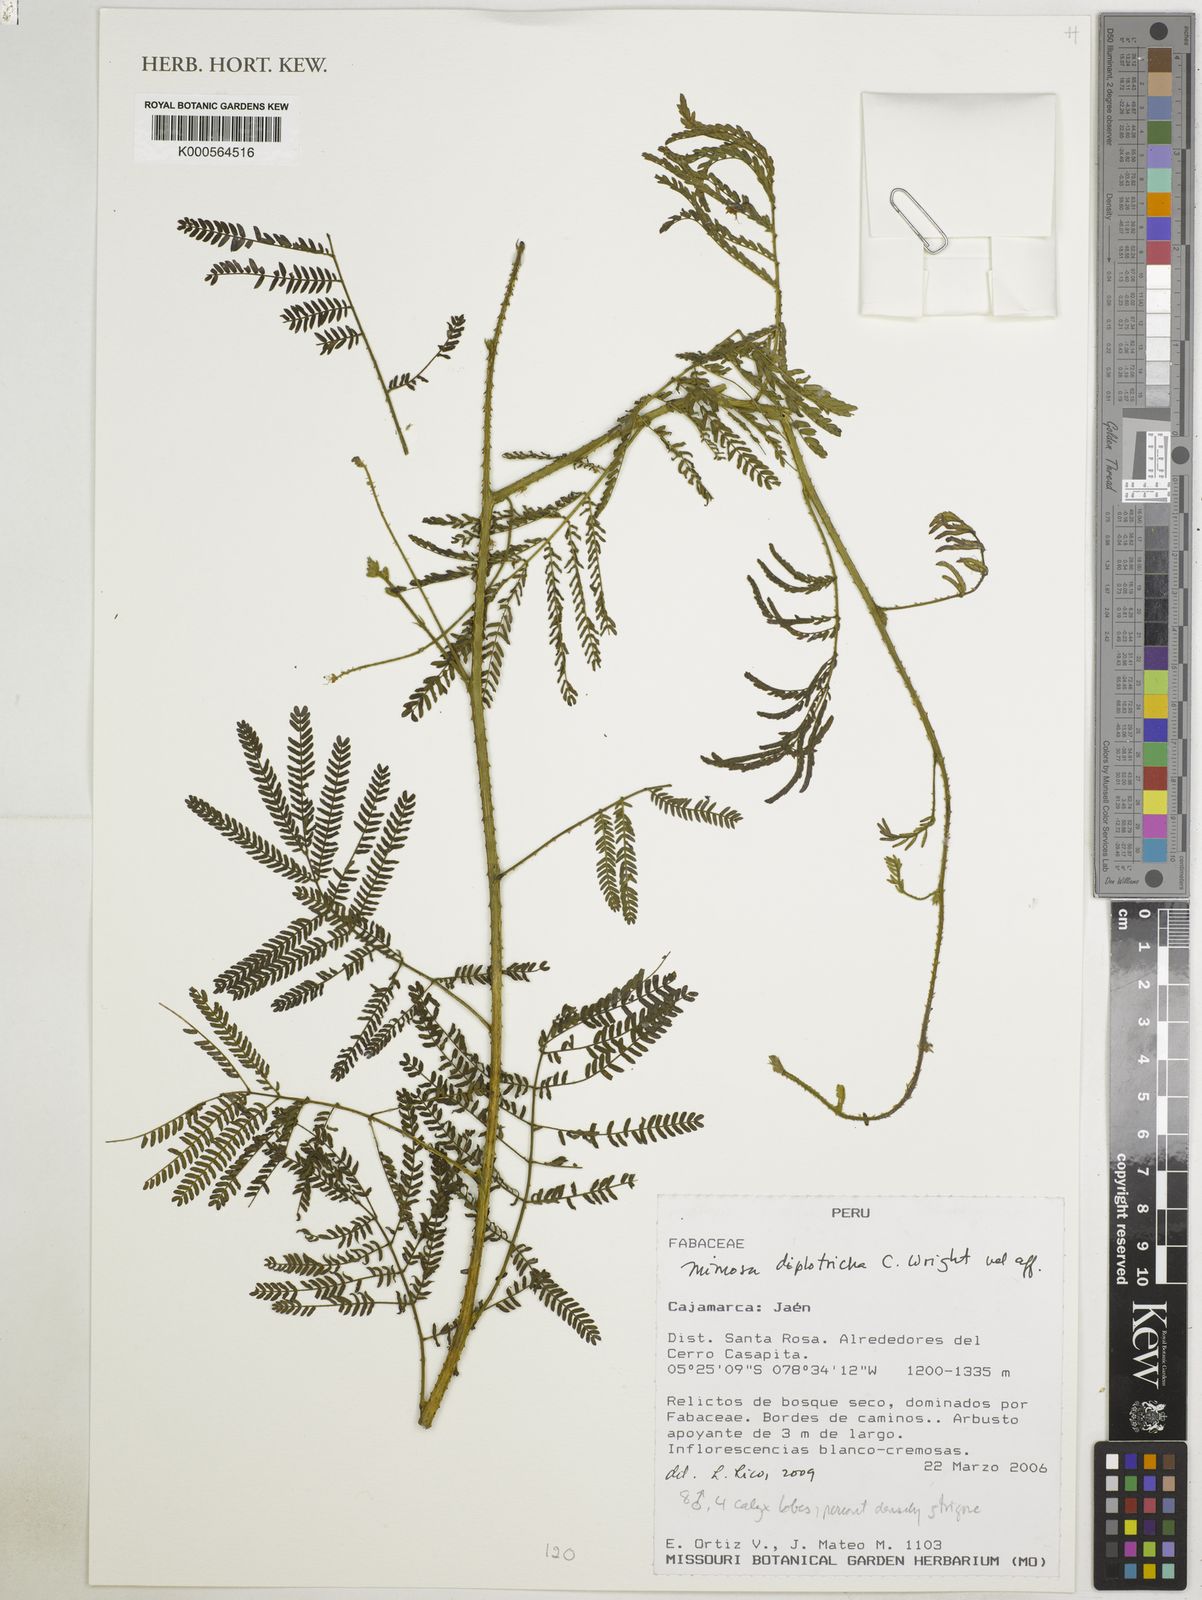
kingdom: Plantae
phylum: Tracheophyta
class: Magnoliopsida
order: Fabales
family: Fabaceae
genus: Mimosa
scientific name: Mimosa diplotricha
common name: Giant sensitive-plant
